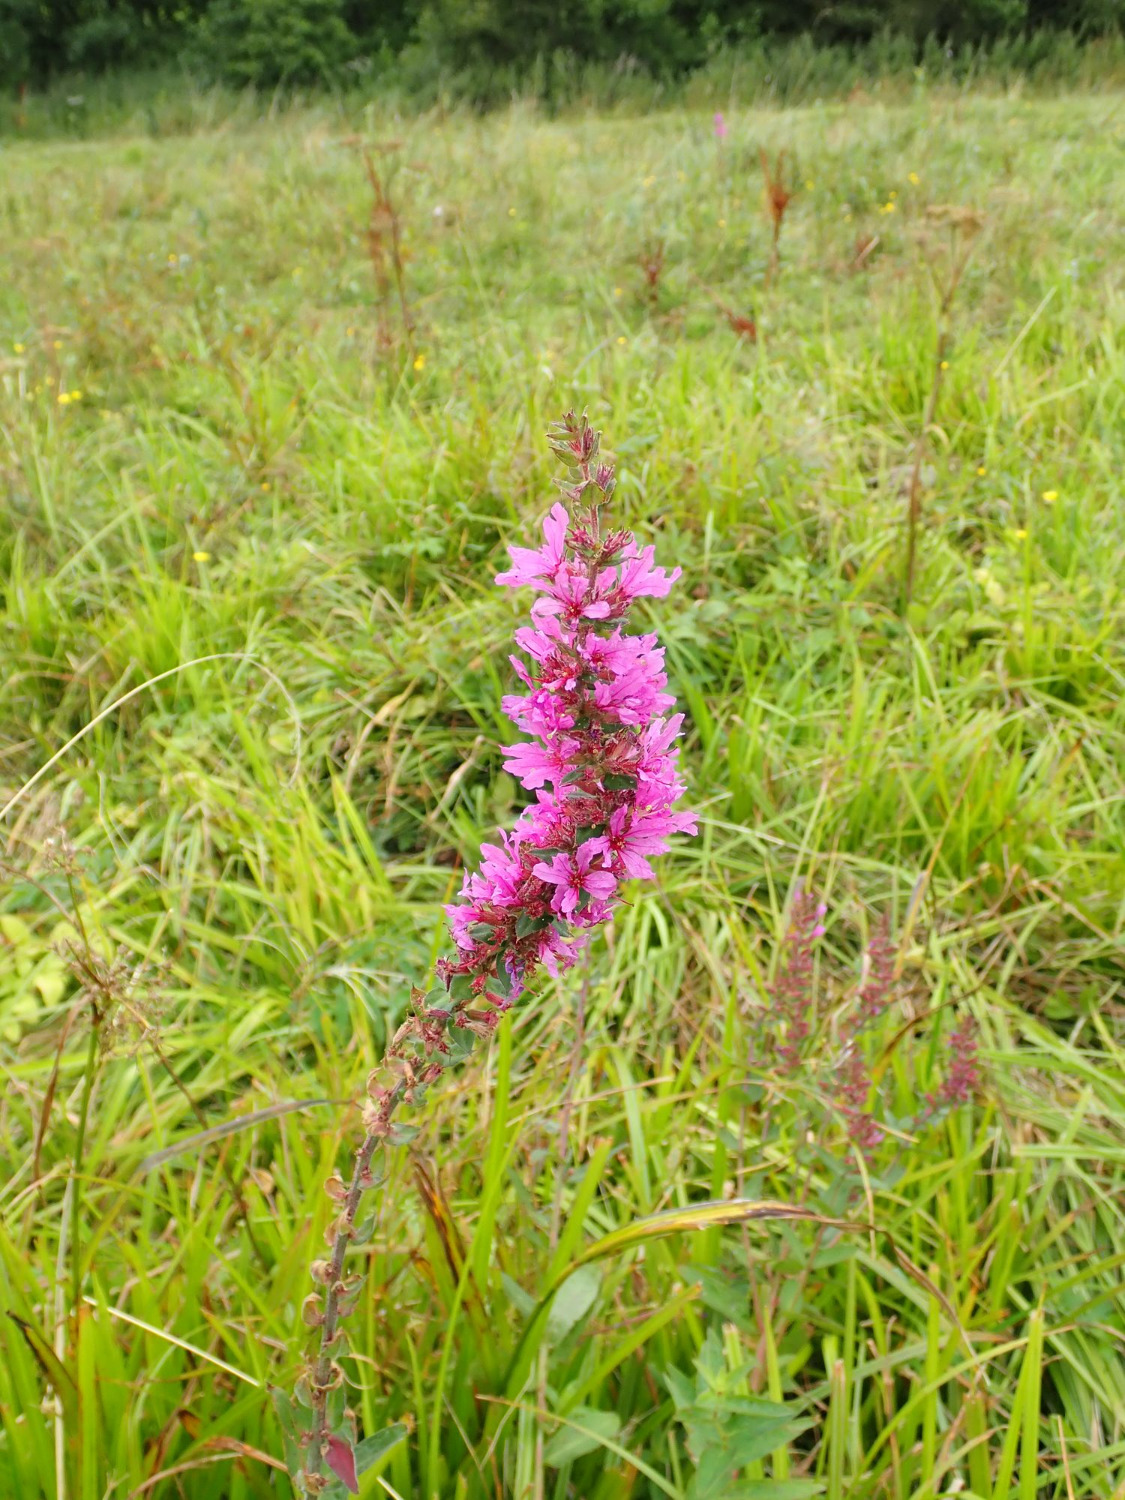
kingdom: Plantae
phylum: Tracheophyta
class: Magnoliopsida
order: Myrtales
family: Lythraceae
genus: Lythrum
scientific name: Lythrum salicaria
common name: Kattehale
